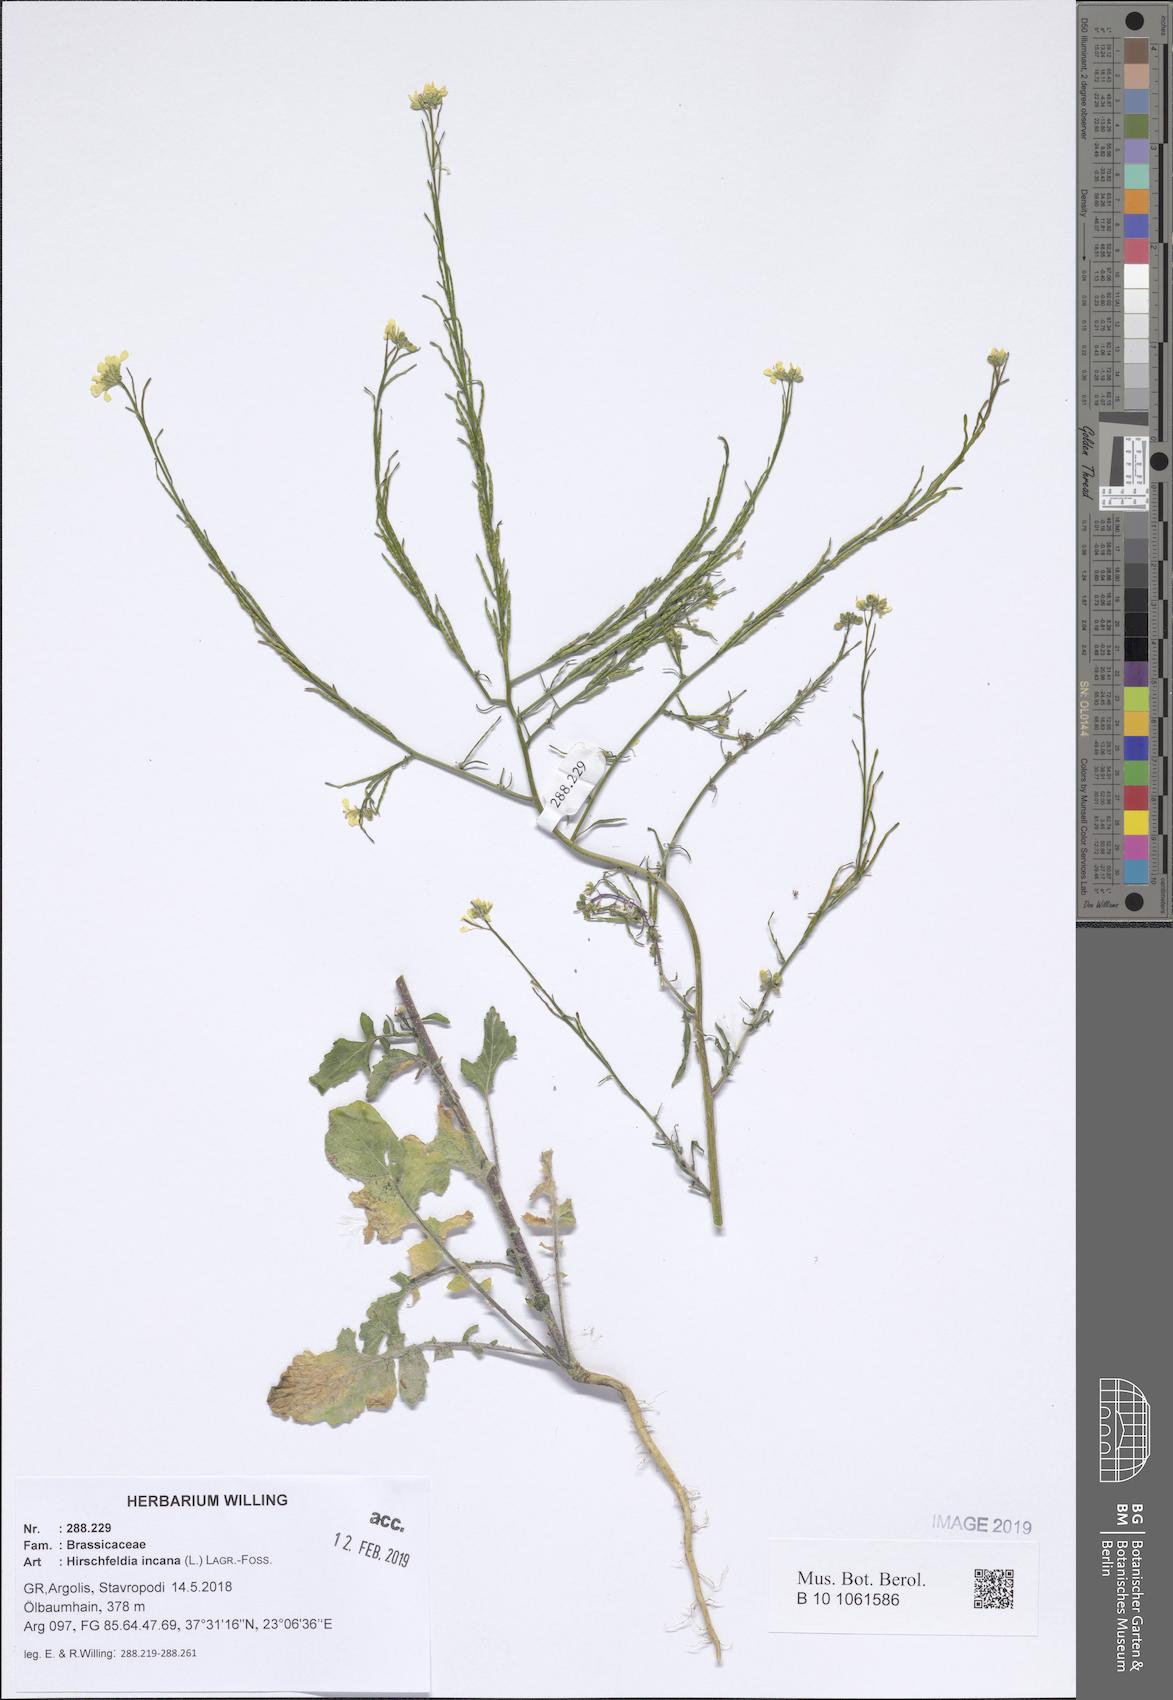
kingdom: Plantae
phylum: Tracheophyta
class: Magnoliopsida
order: Brassicales
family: Brassicaceae
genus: Hirschfeldia
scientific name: Hirschfeldia incana
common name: Hoary mustard
